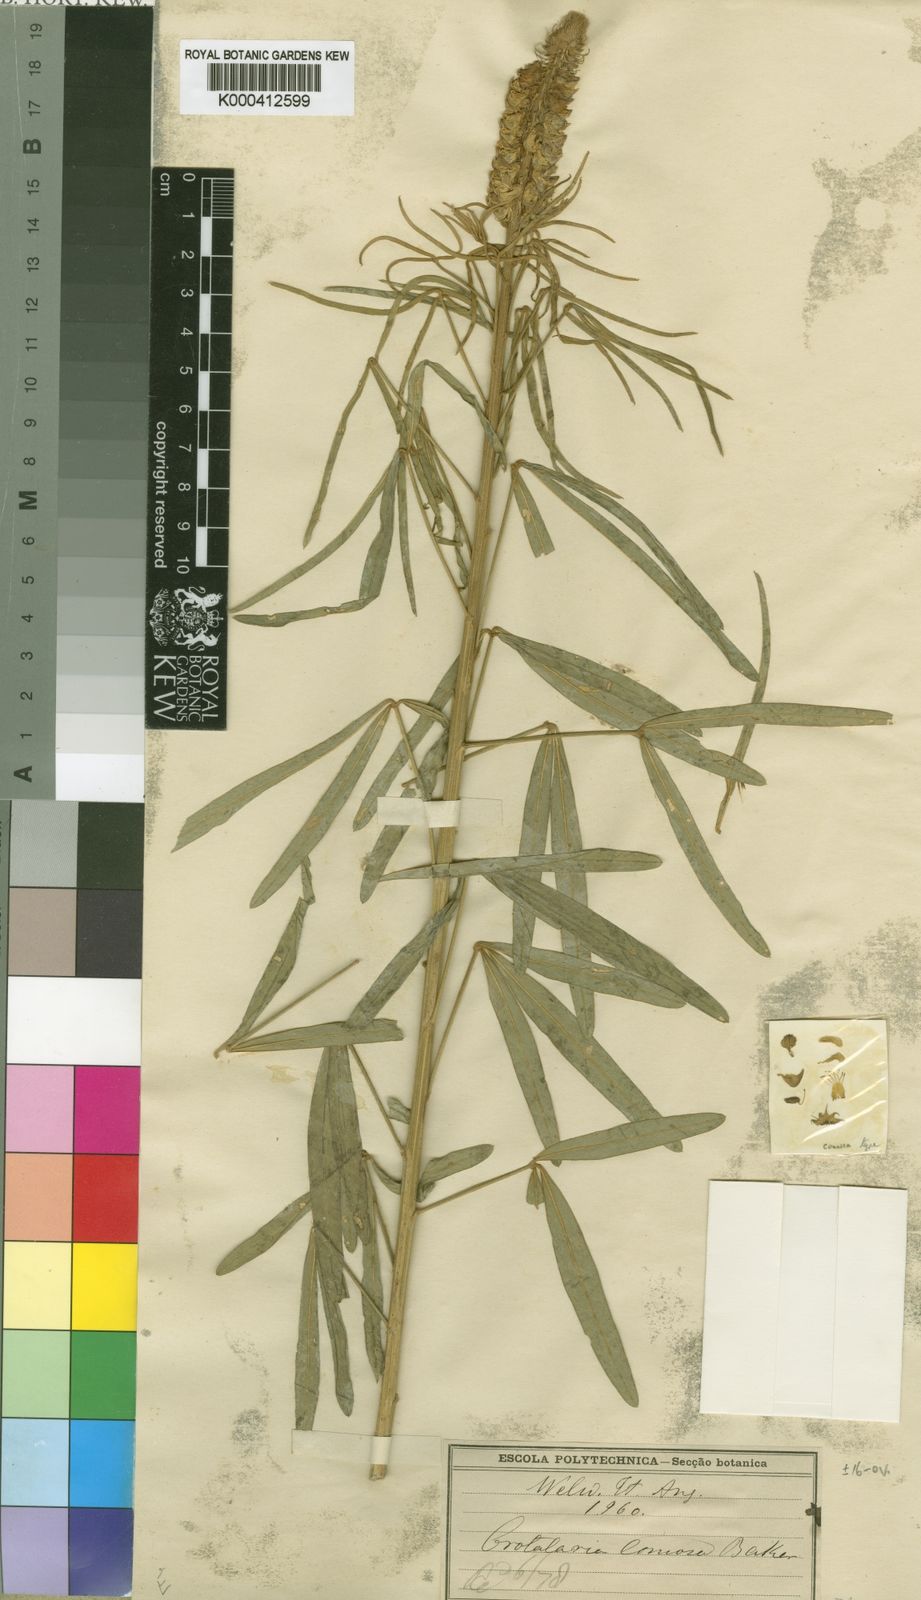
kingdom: Plantae
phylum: Tracheophyta
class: Magnoliopsida
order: Fabales
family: Fabaceae
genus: Crotalaria
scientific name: Crotalaria comosa
